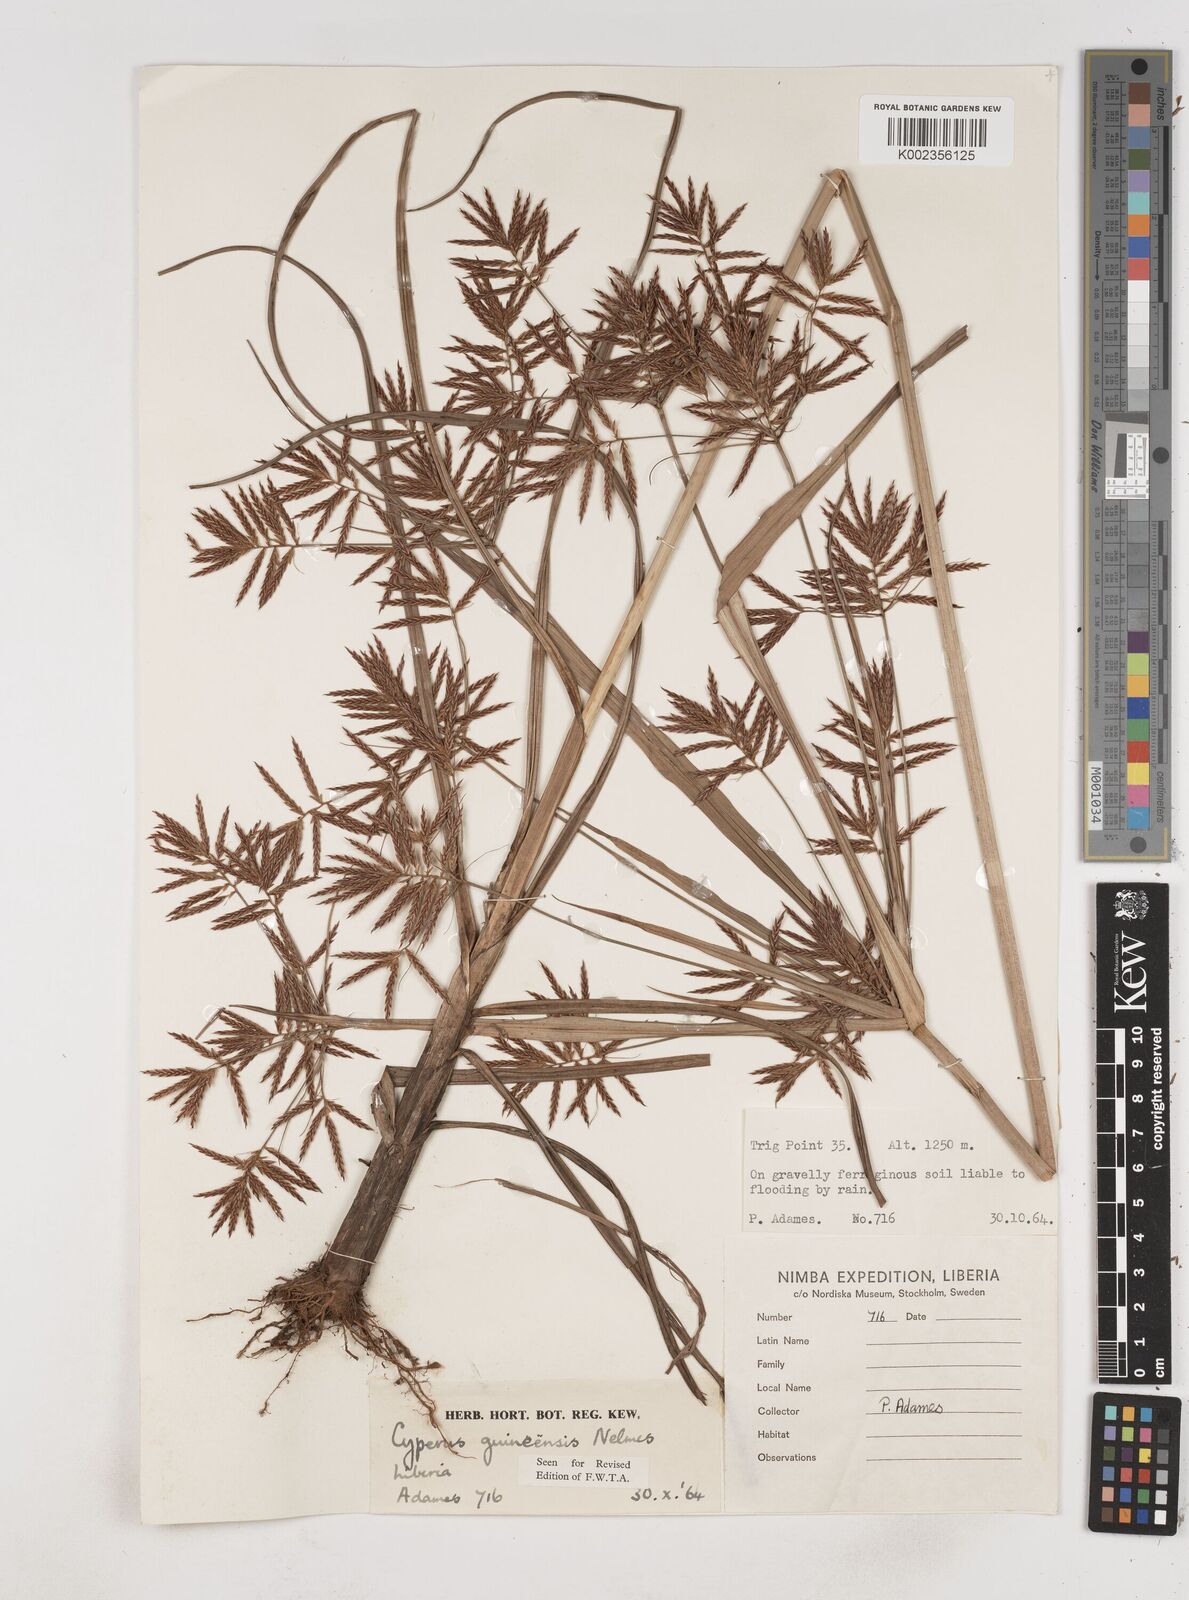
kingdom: Plantae
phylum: Tracheophyta
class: Liliopsida
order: Poales
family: Cyperaceae
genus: Cyperus
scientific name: Cyperus tenuiculmis
